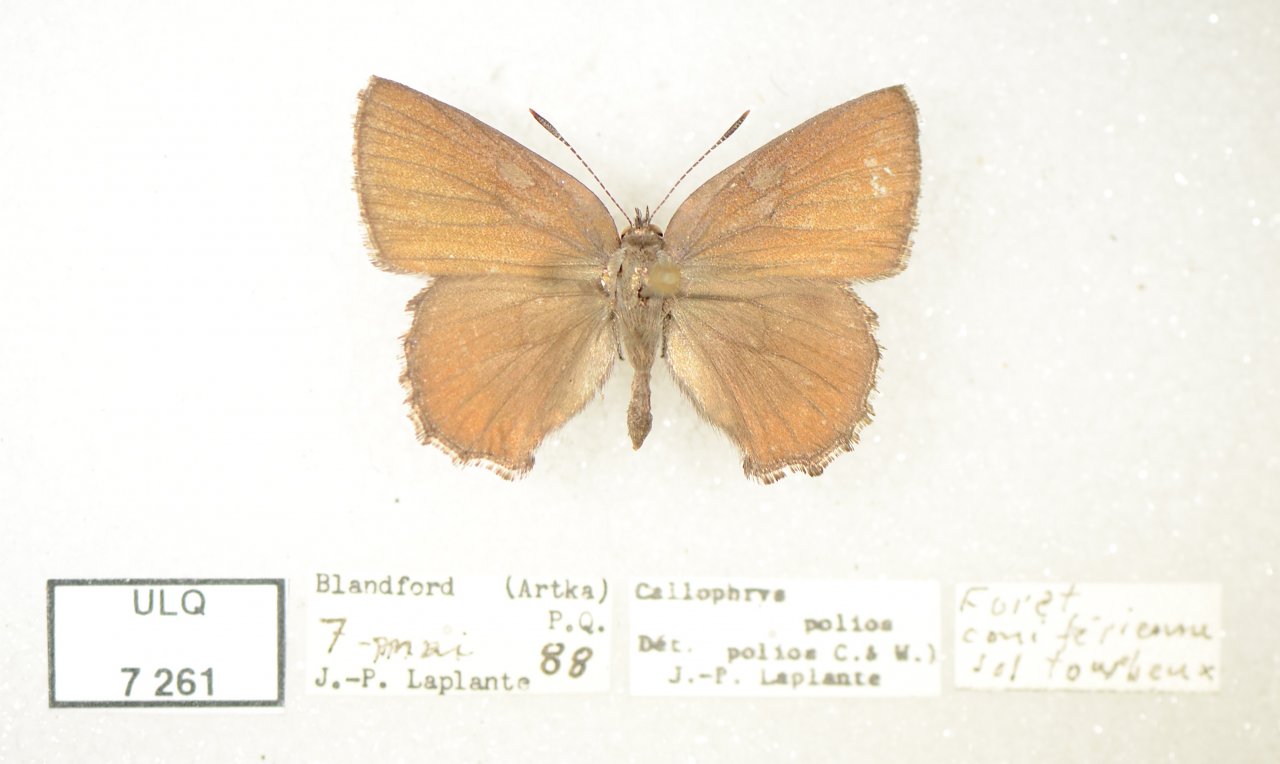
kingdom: Animalia
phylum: Arthropoda
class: Insecta
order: Lepidoptera
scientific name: Lepidoptera
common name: Butterflies
